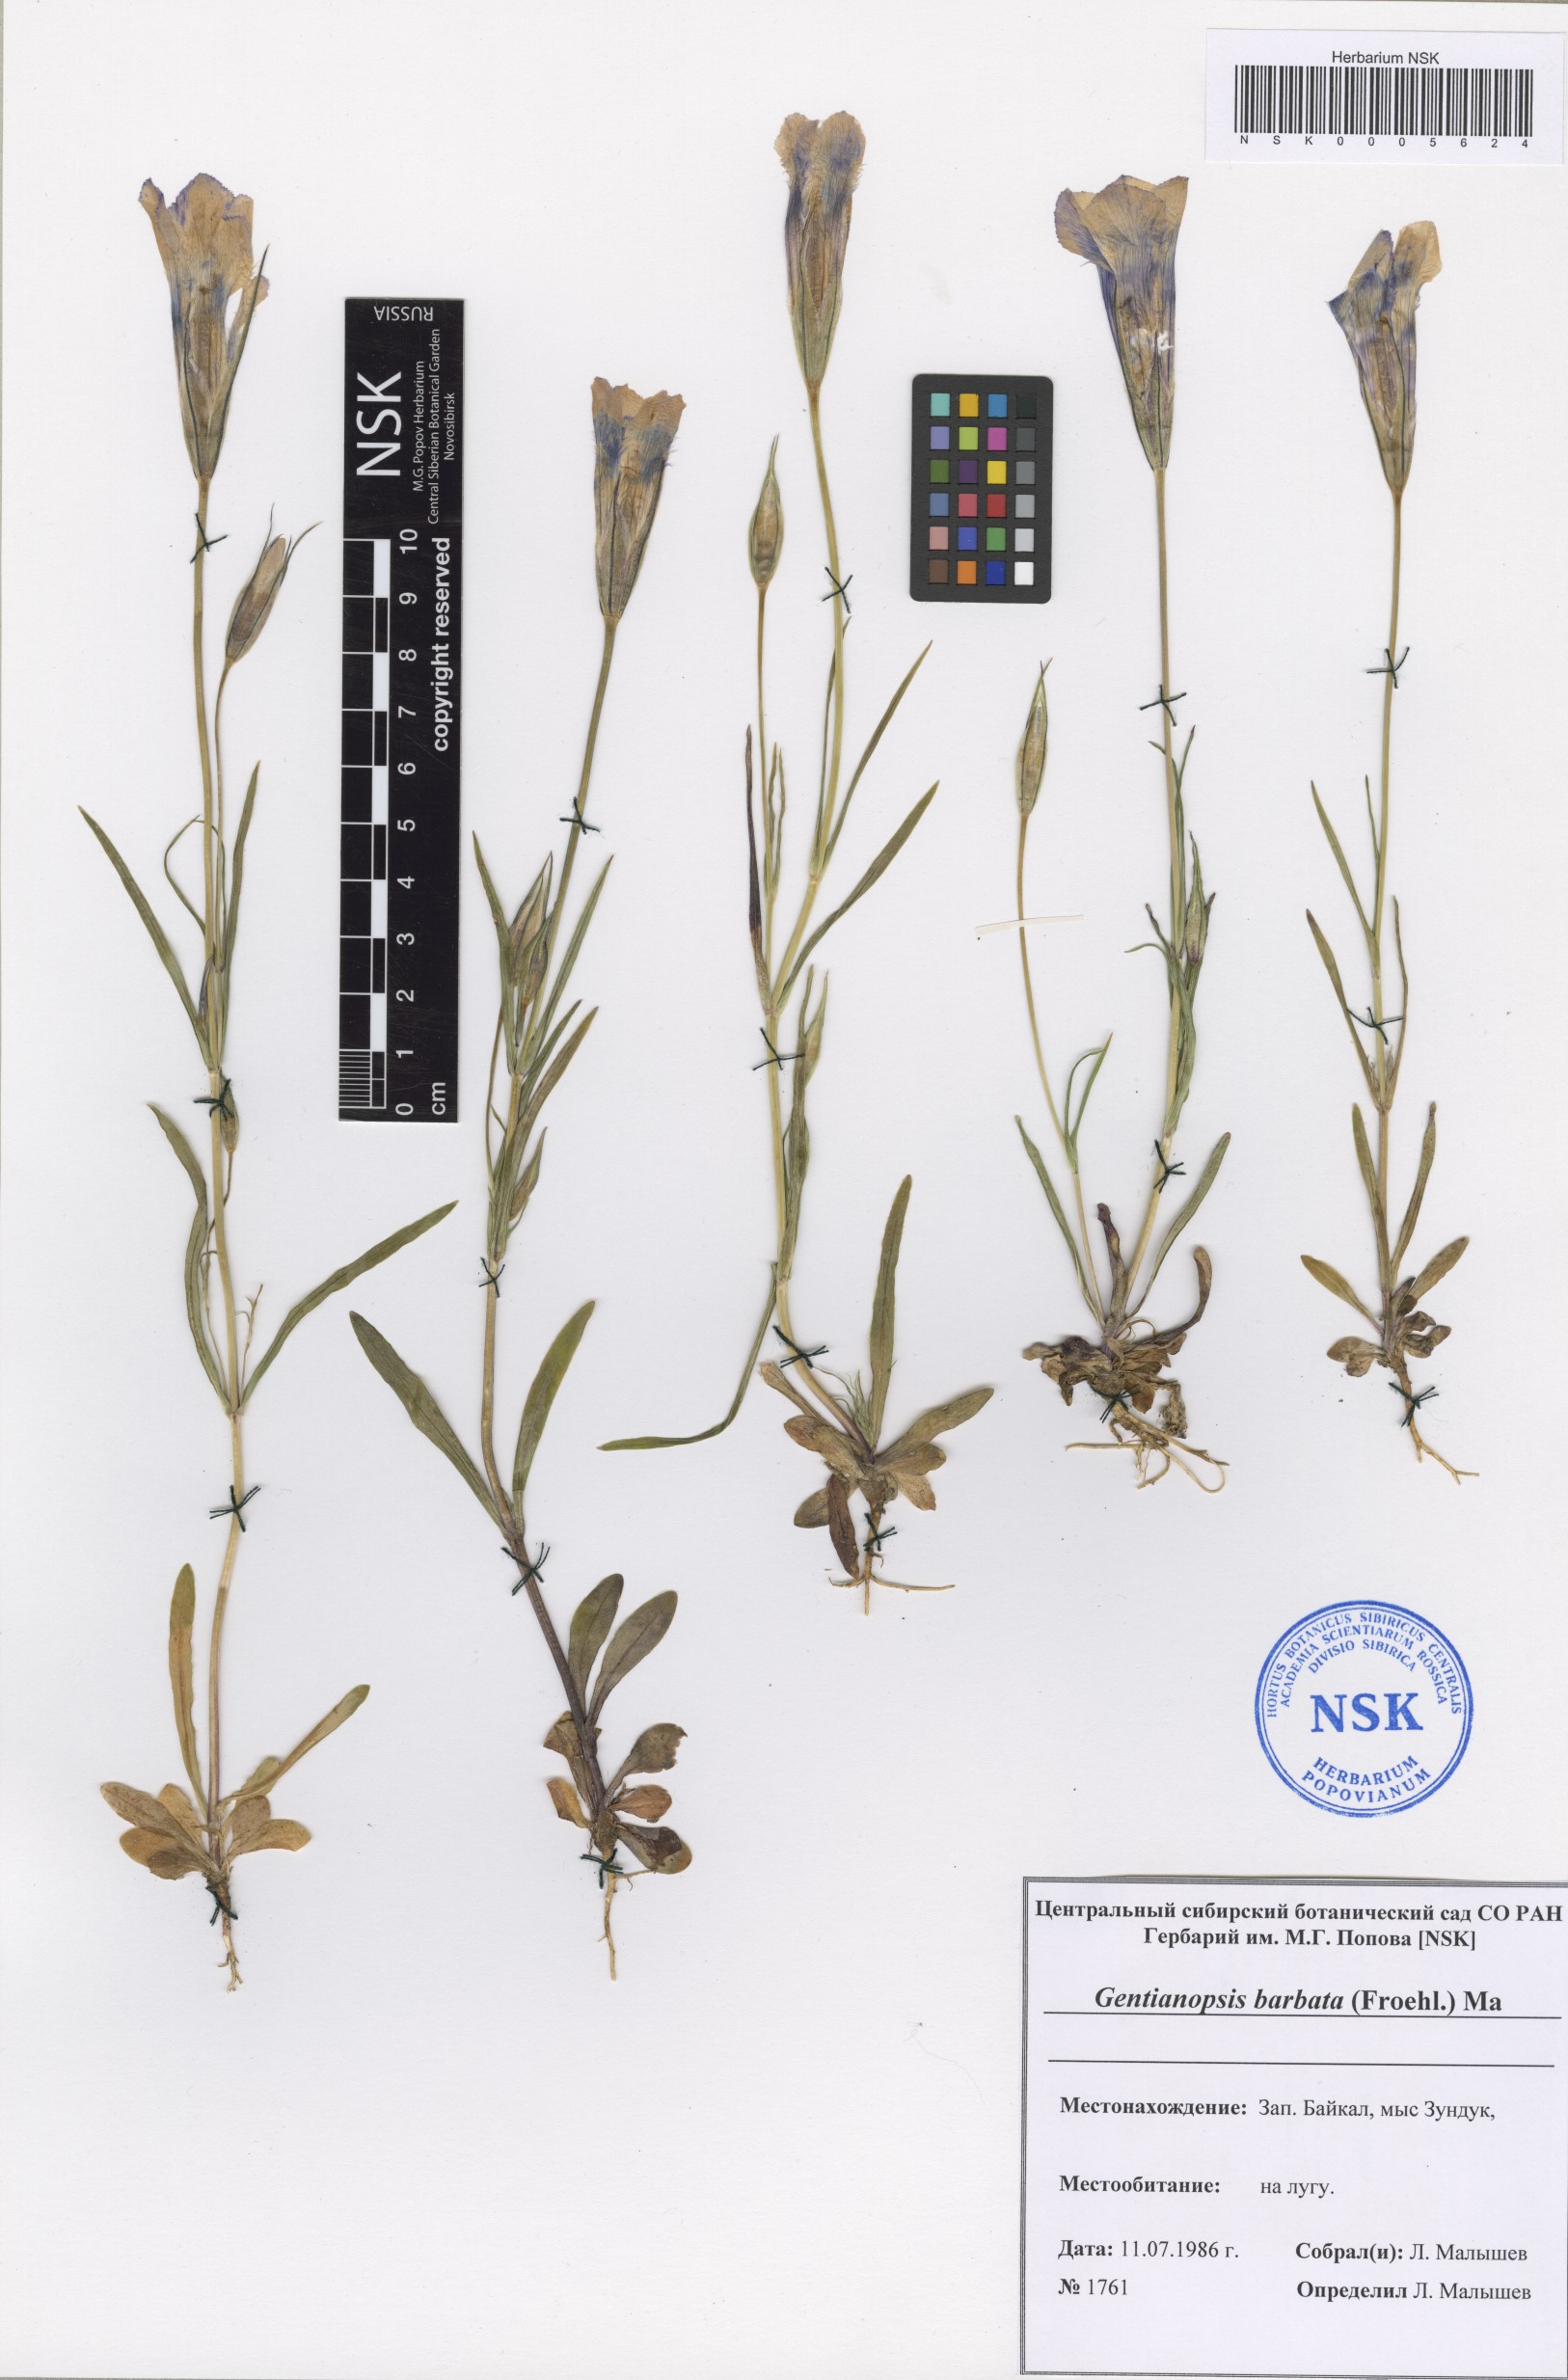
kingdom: Plantae
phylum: Tracheophyta
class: Magnoliopsida
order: Gentianales
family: Gentianaceae
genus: Gentianopsis
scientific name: Gentianopsis barbata
